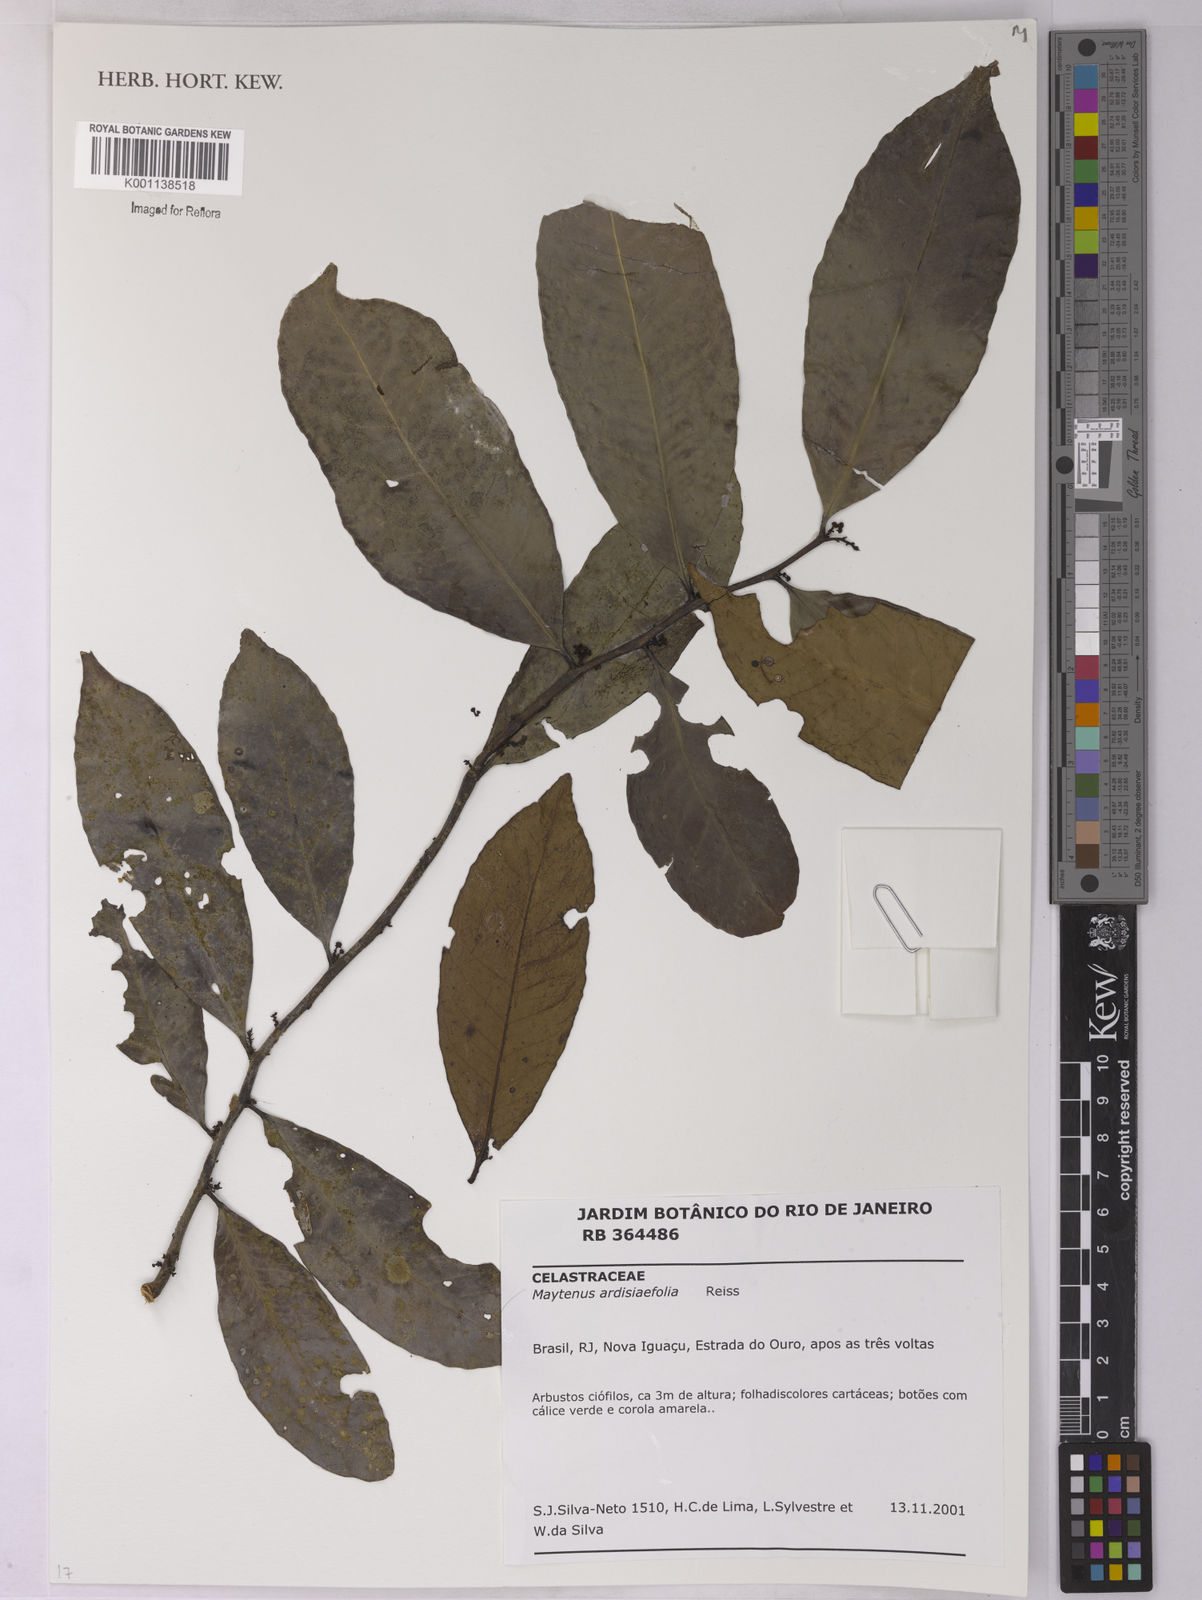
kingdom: Plantae
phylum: Tracheophyta
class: Magnoliopsida
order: Celastrales
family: Celastraceae
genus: Monteverdia
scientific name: Monteverdia ardisiifolia
